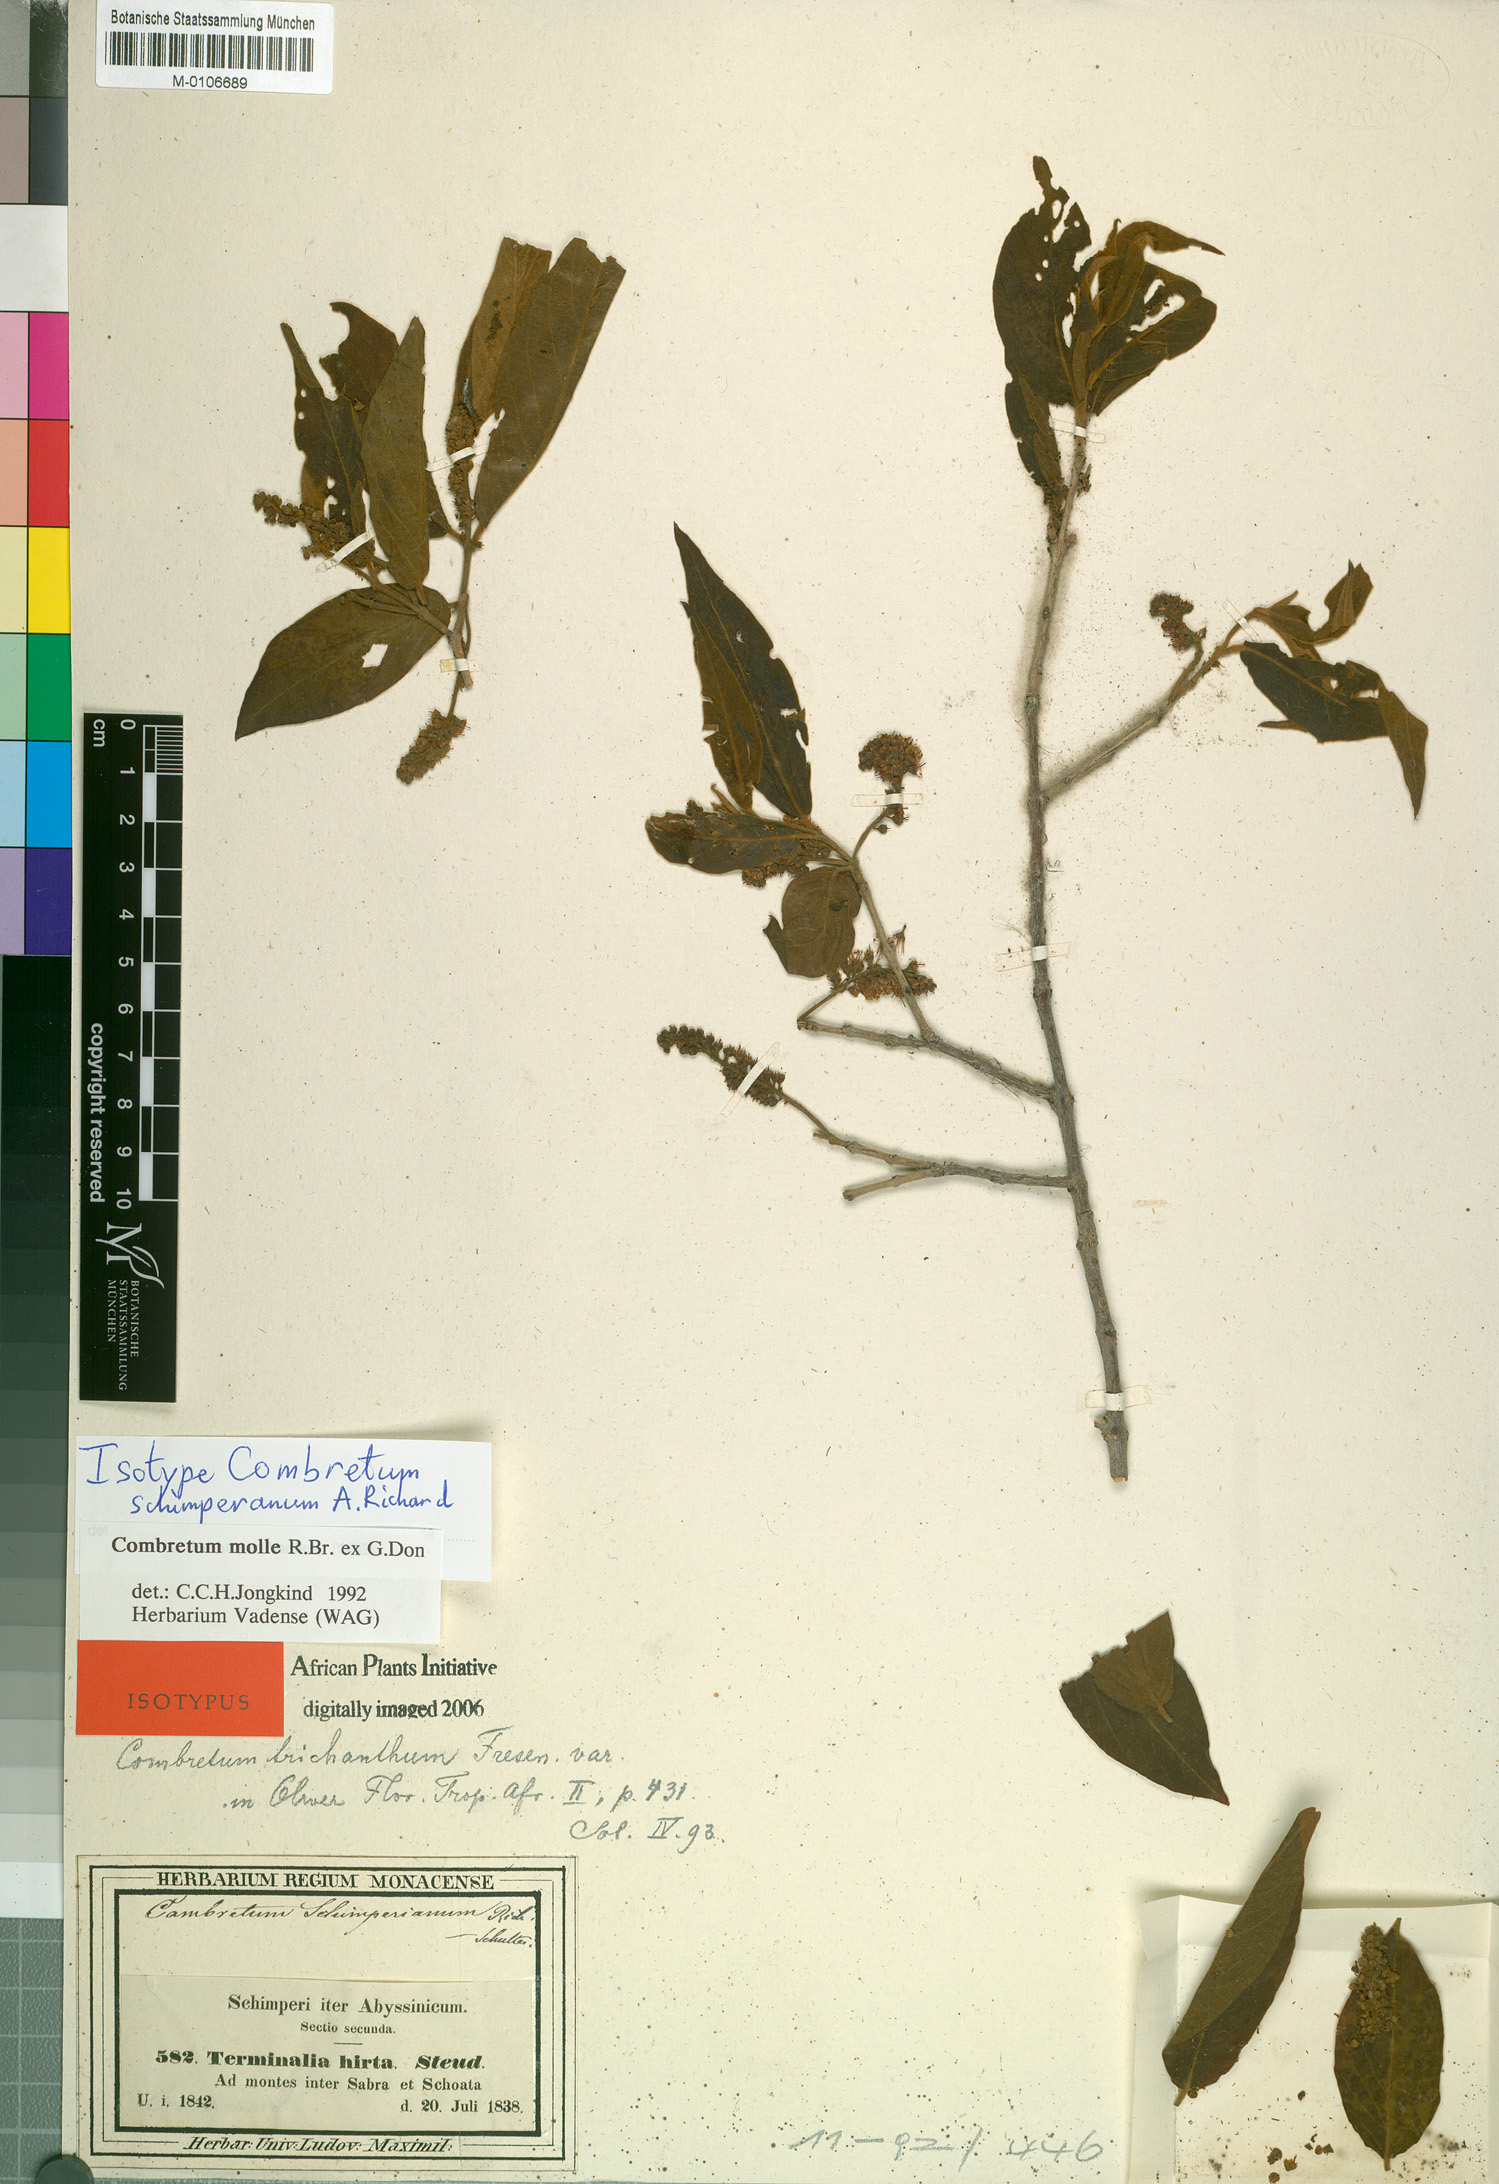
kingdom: Plantae
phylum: Tracheophyta
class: Magnoliopsida
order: Myrtales
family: Combretaceae
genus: Combretum
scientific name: Combretum molle
